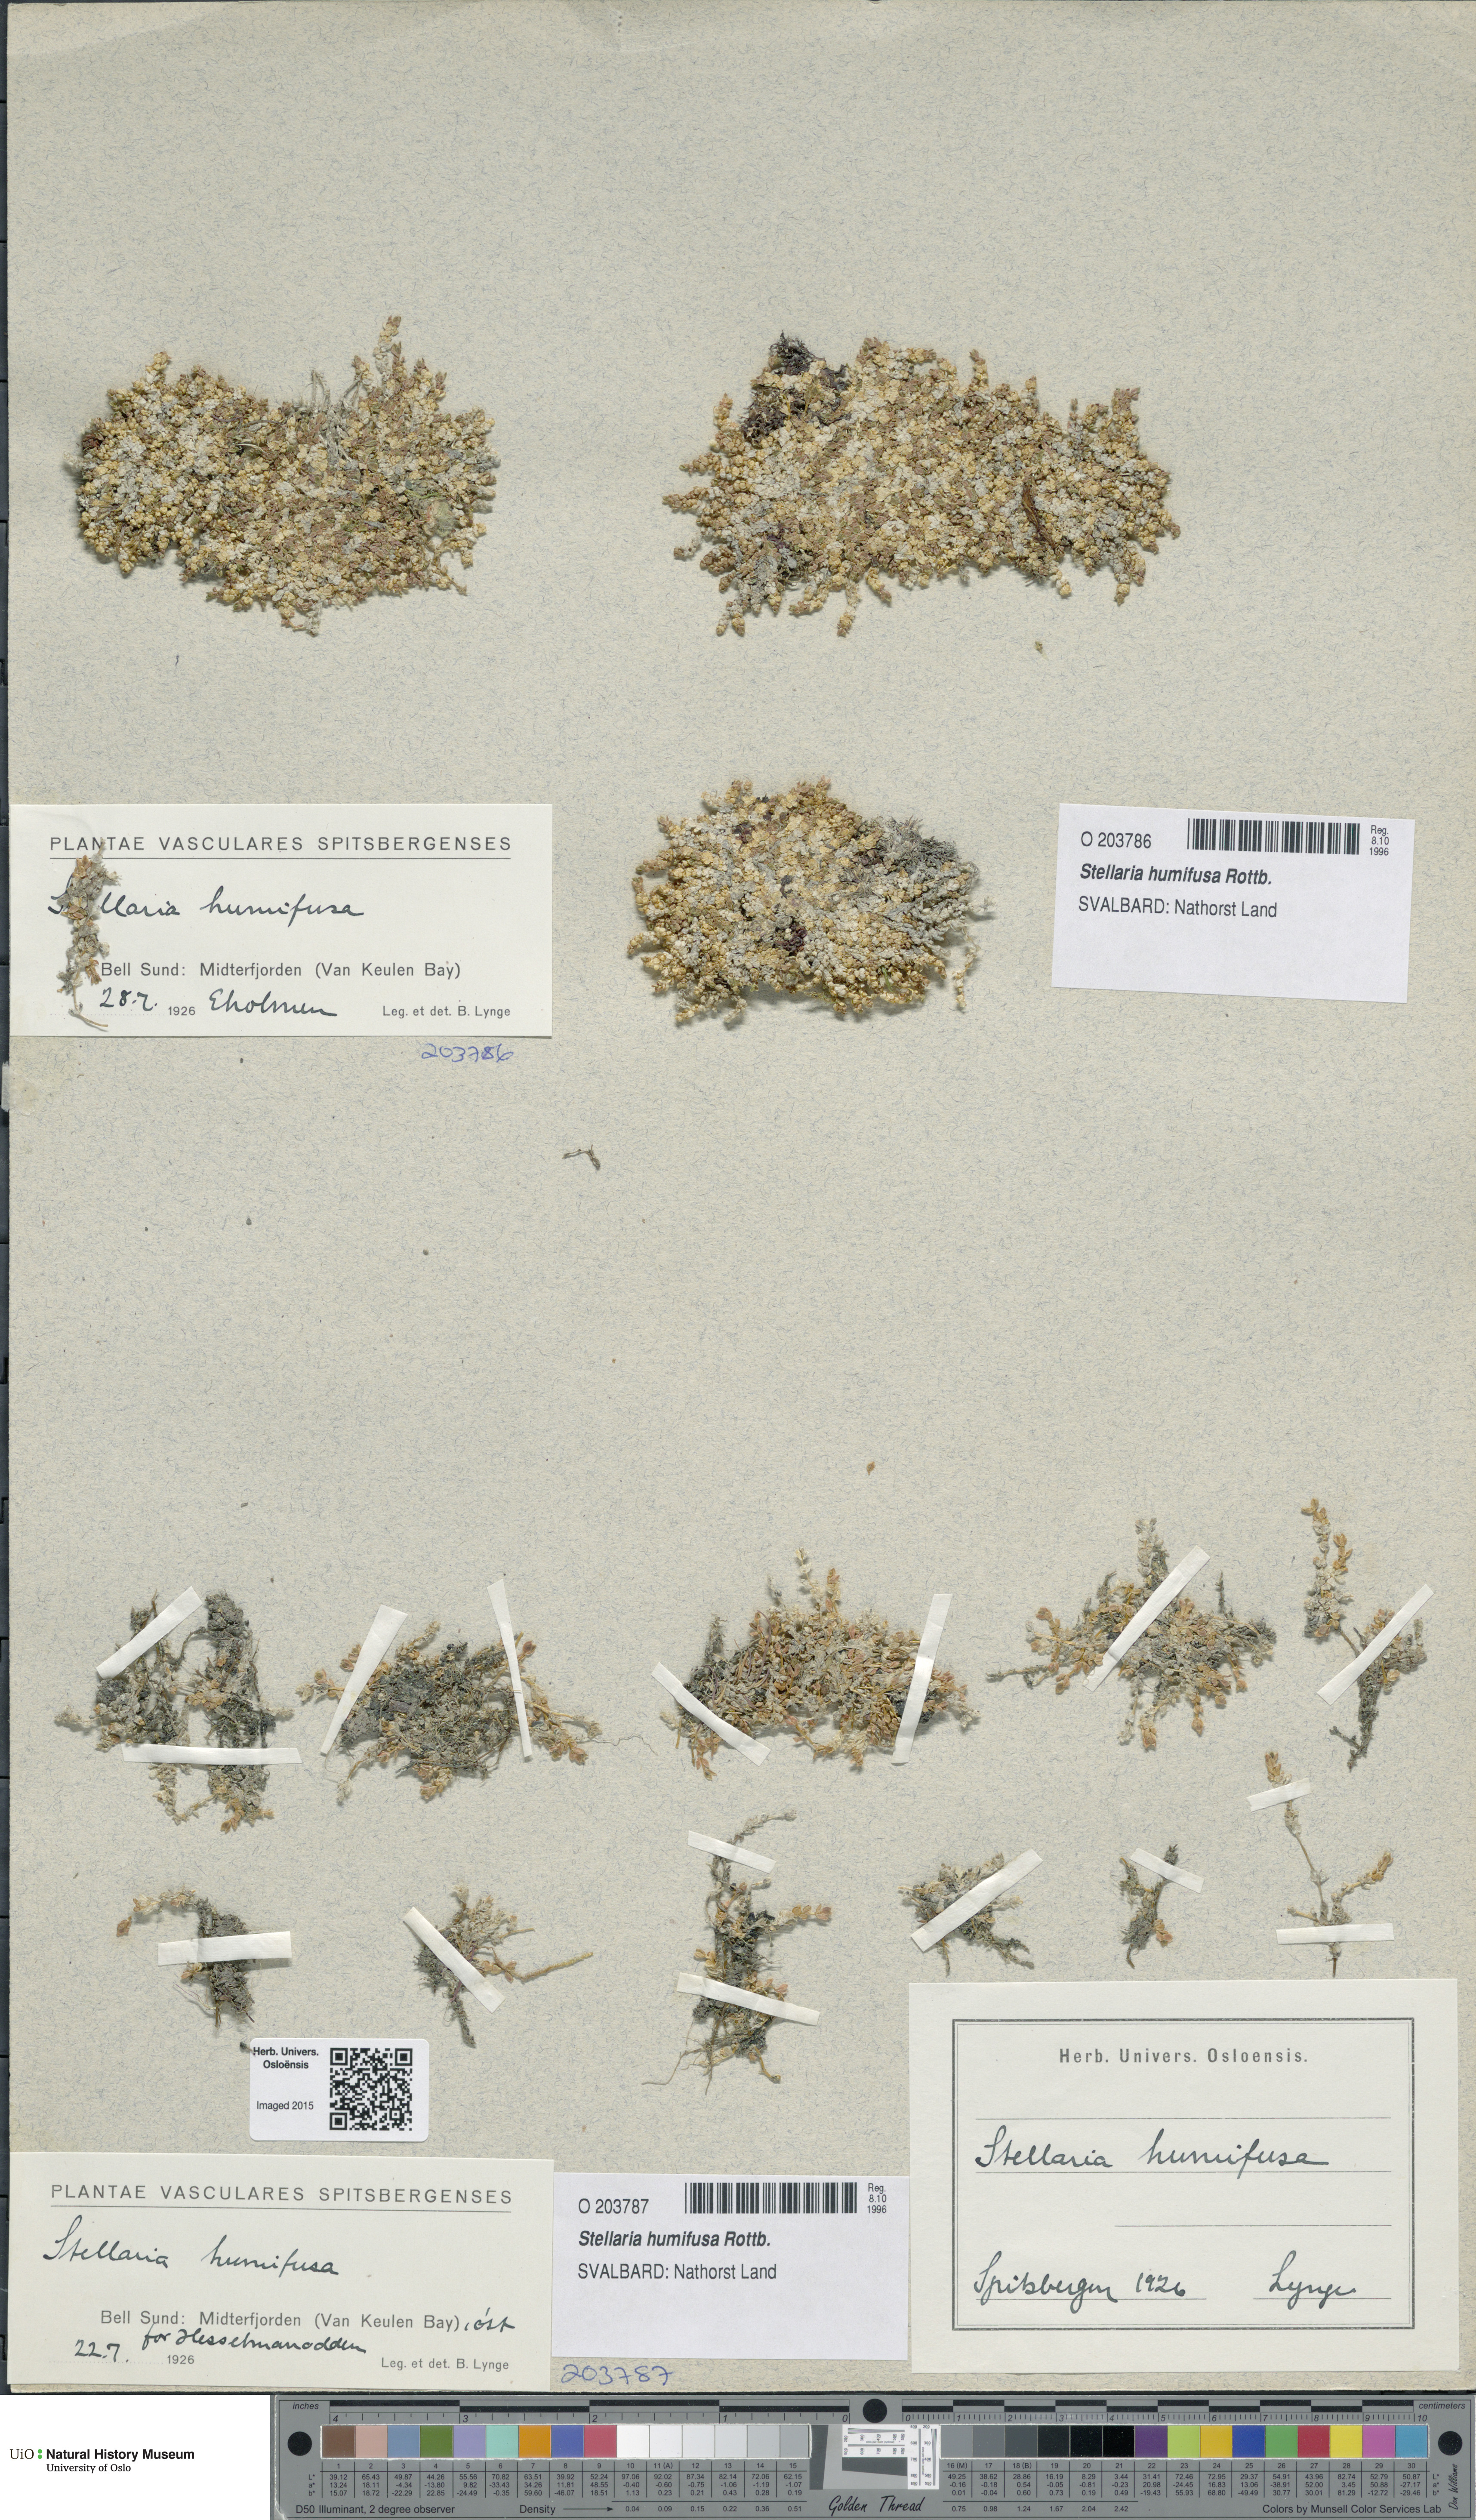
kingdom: Plantae
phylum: Tracheophyta
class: Magnoliopsida
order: Caryophyllales
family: Caryophyllaceae
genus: Stellaria
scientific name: Stellaria humifusa
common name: Creeping starwort
